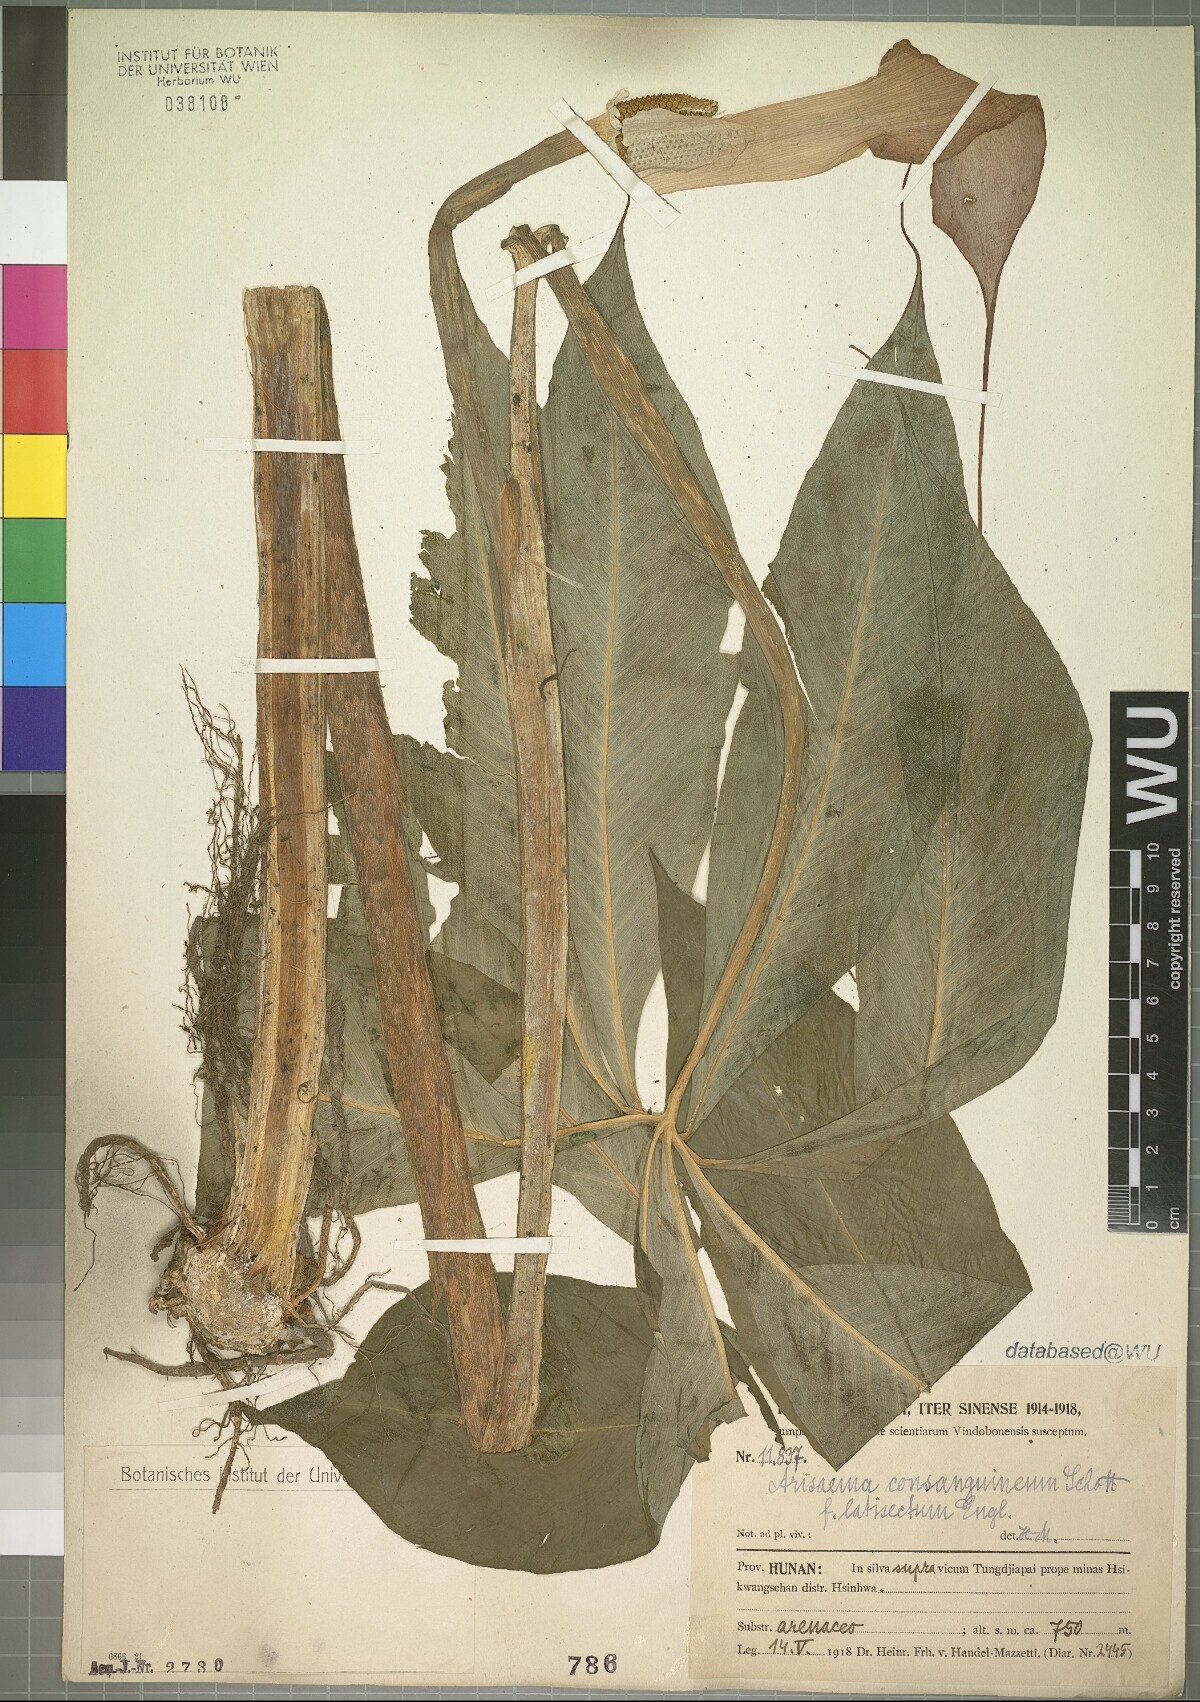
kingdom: Plantae
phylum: Tracheophyta
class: Liliopsida
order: Alismatales
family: Araceae
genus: Arisaema
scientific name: Arisaema consanguineum
